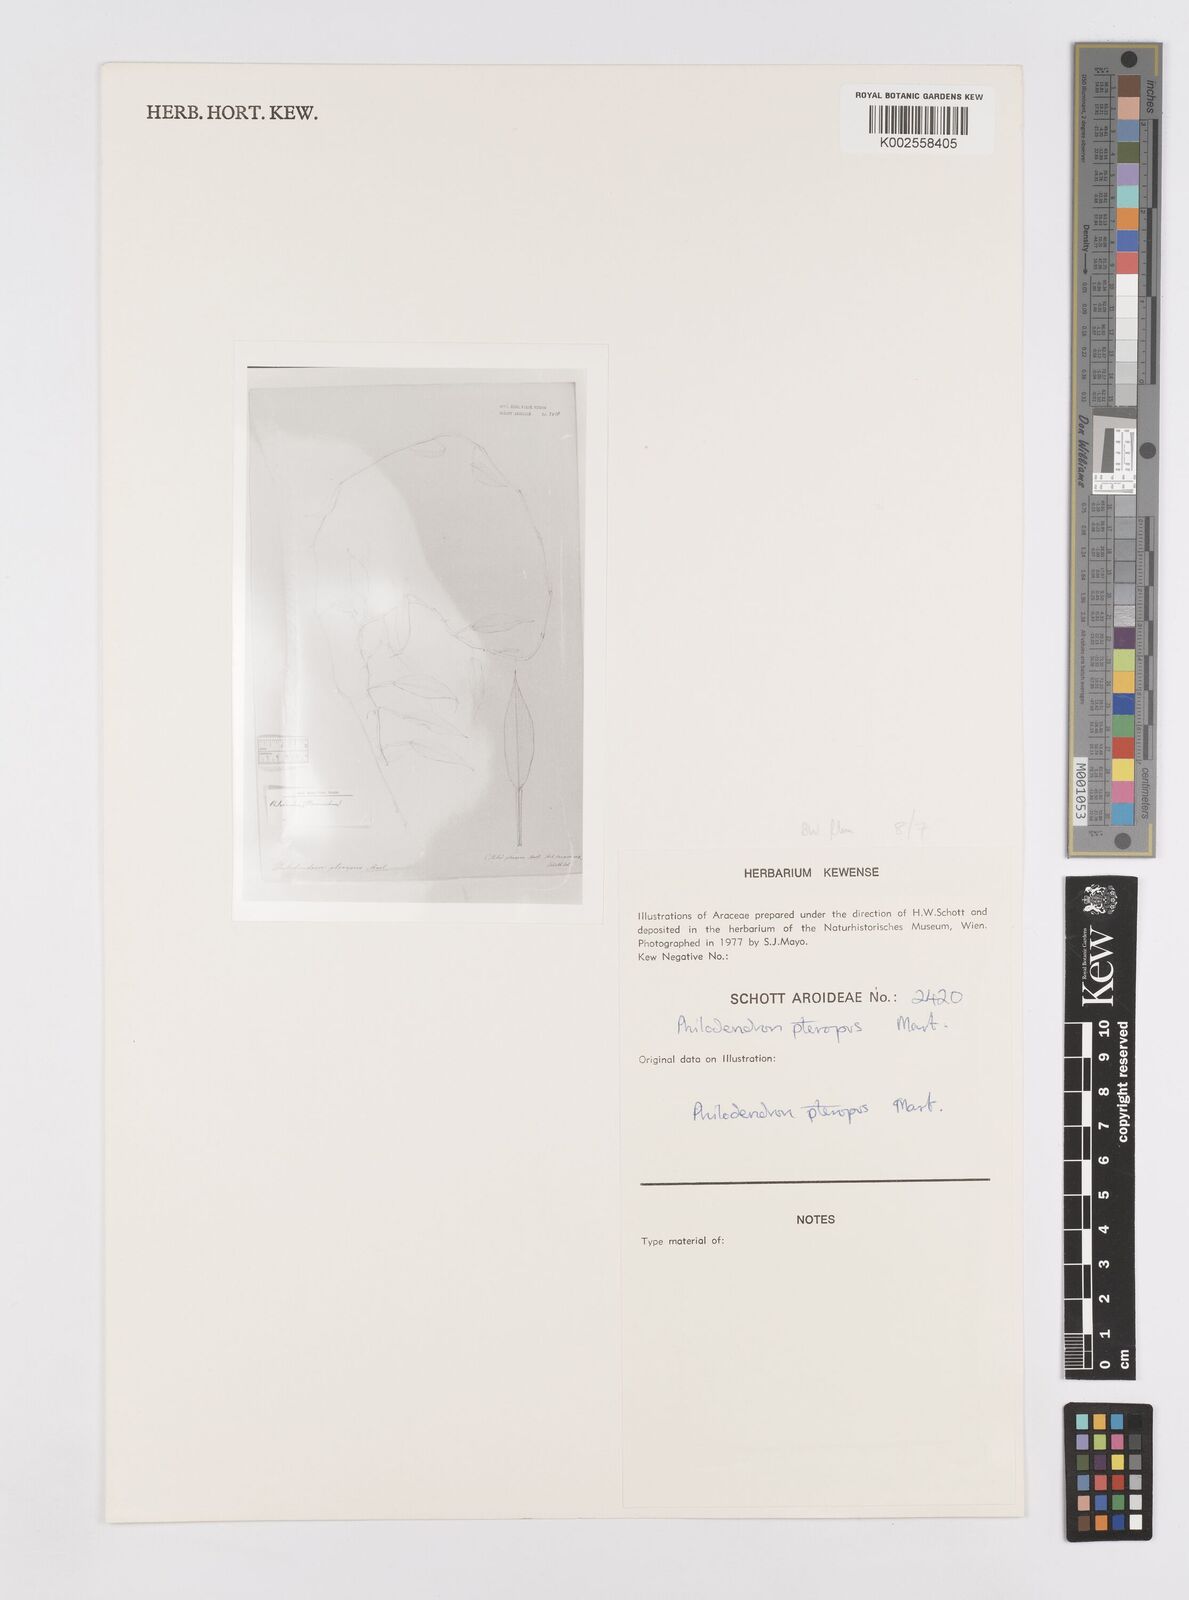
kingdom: Plantae
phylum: Tracheophyta
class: Liliopsida
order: Alismatales
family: Araceae
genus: Philodendron
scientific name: Philodendron pteropus
